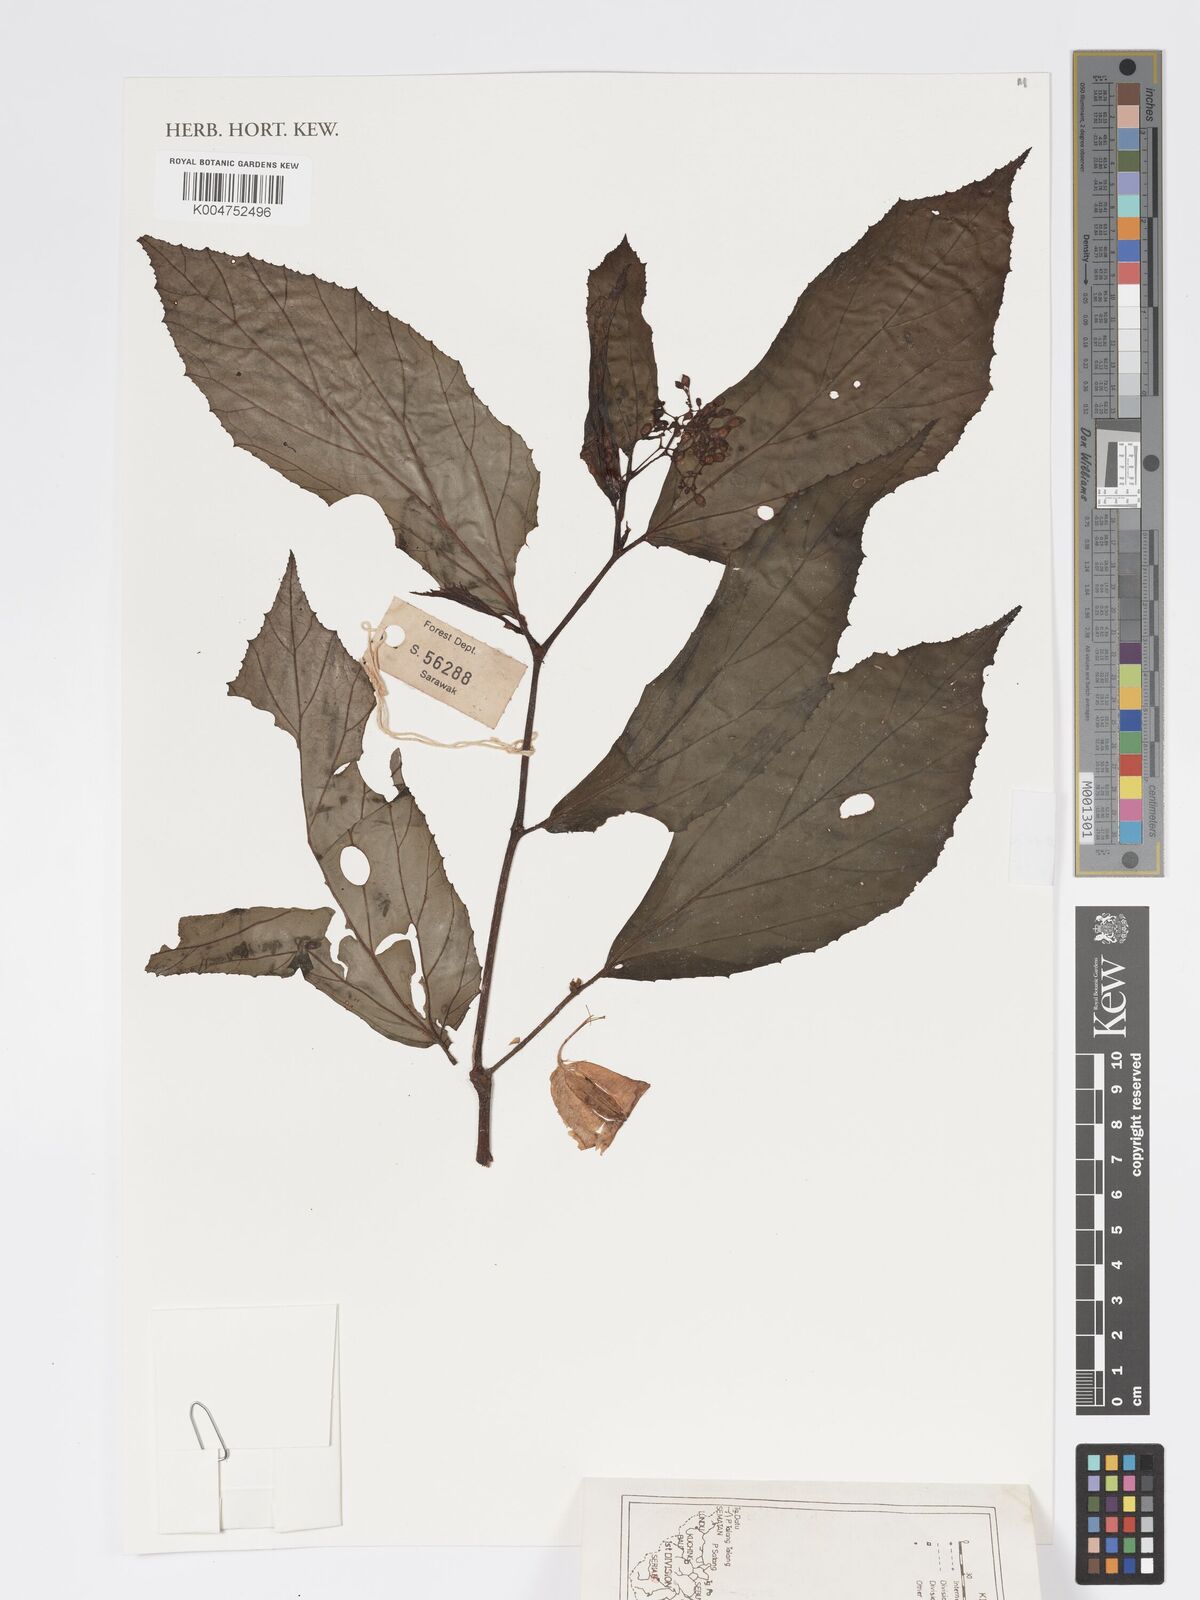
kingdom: Plantae
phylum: Tracheophyta
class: Magnoliopsida
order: Cucurbitales
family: Begoniaceae
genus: Begonia
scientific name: Begonia paoana
